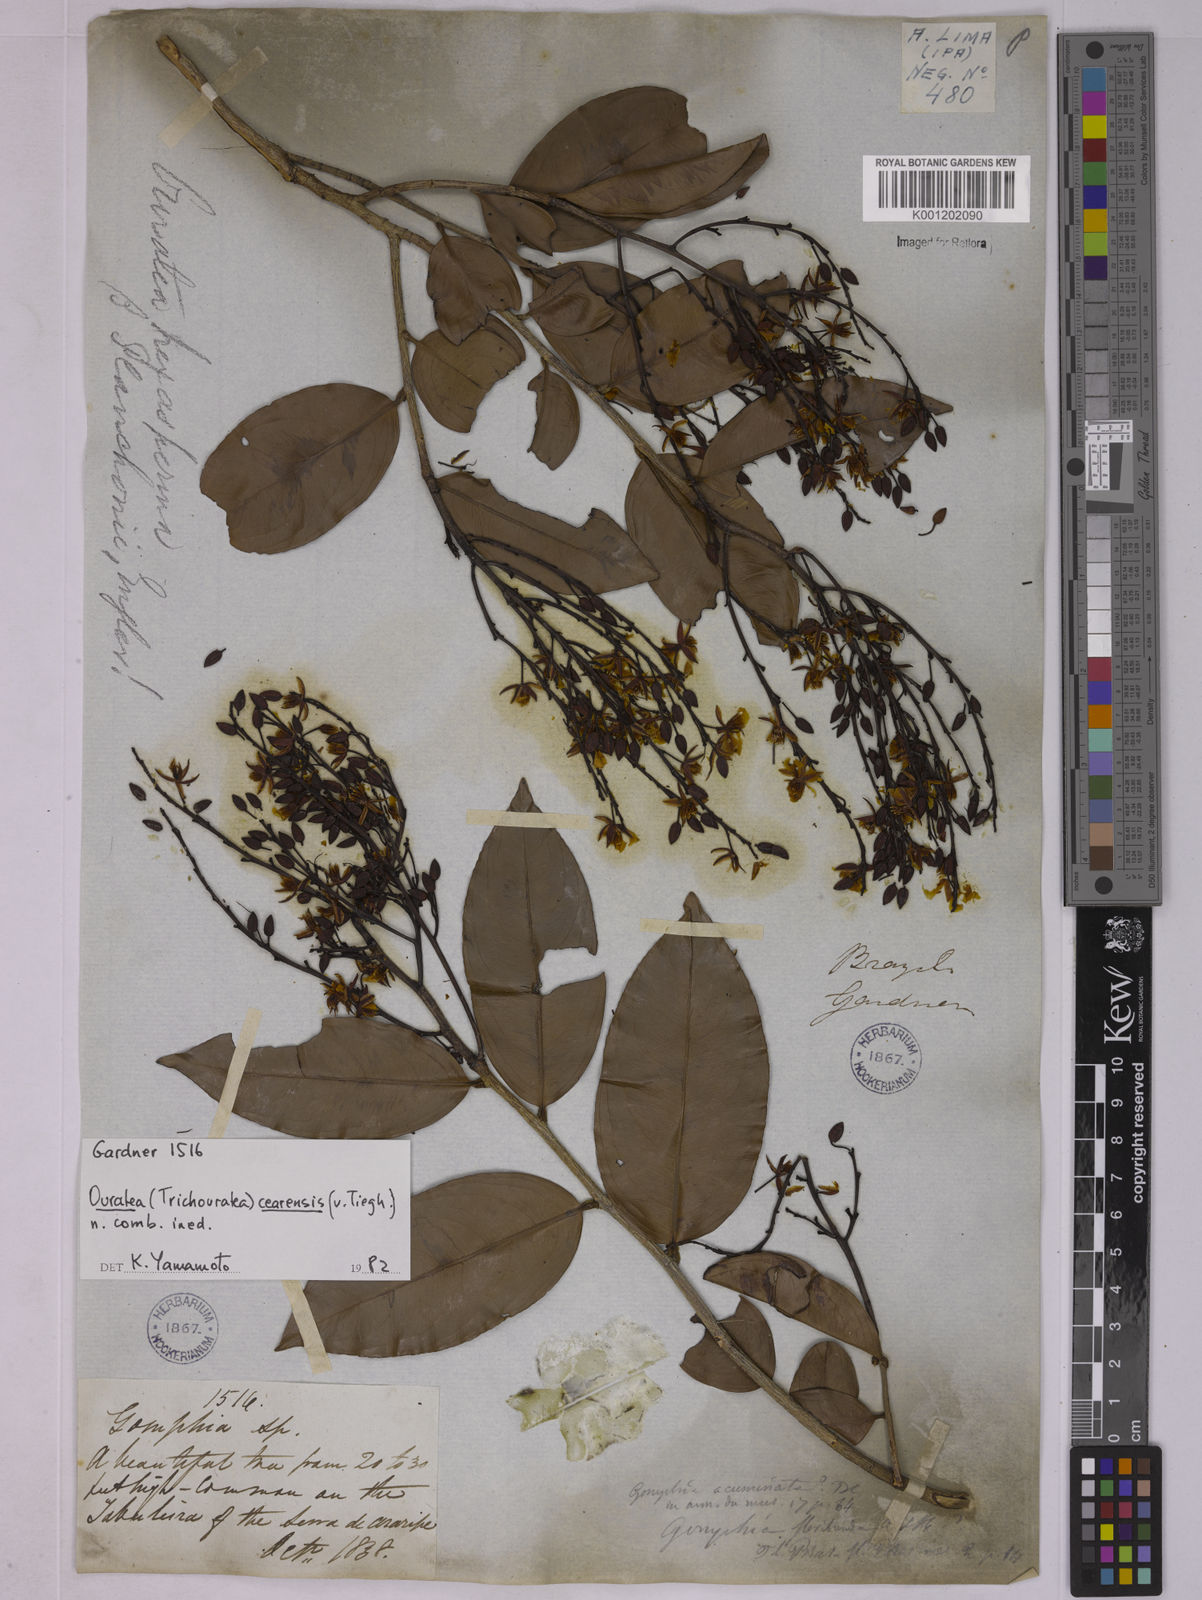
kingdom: Plantae
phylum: Tracheophyta
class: Magnoliopsida
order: Malpighiales
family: Ochnaceae
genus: Ouratea
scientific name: Ouratea cearensis
